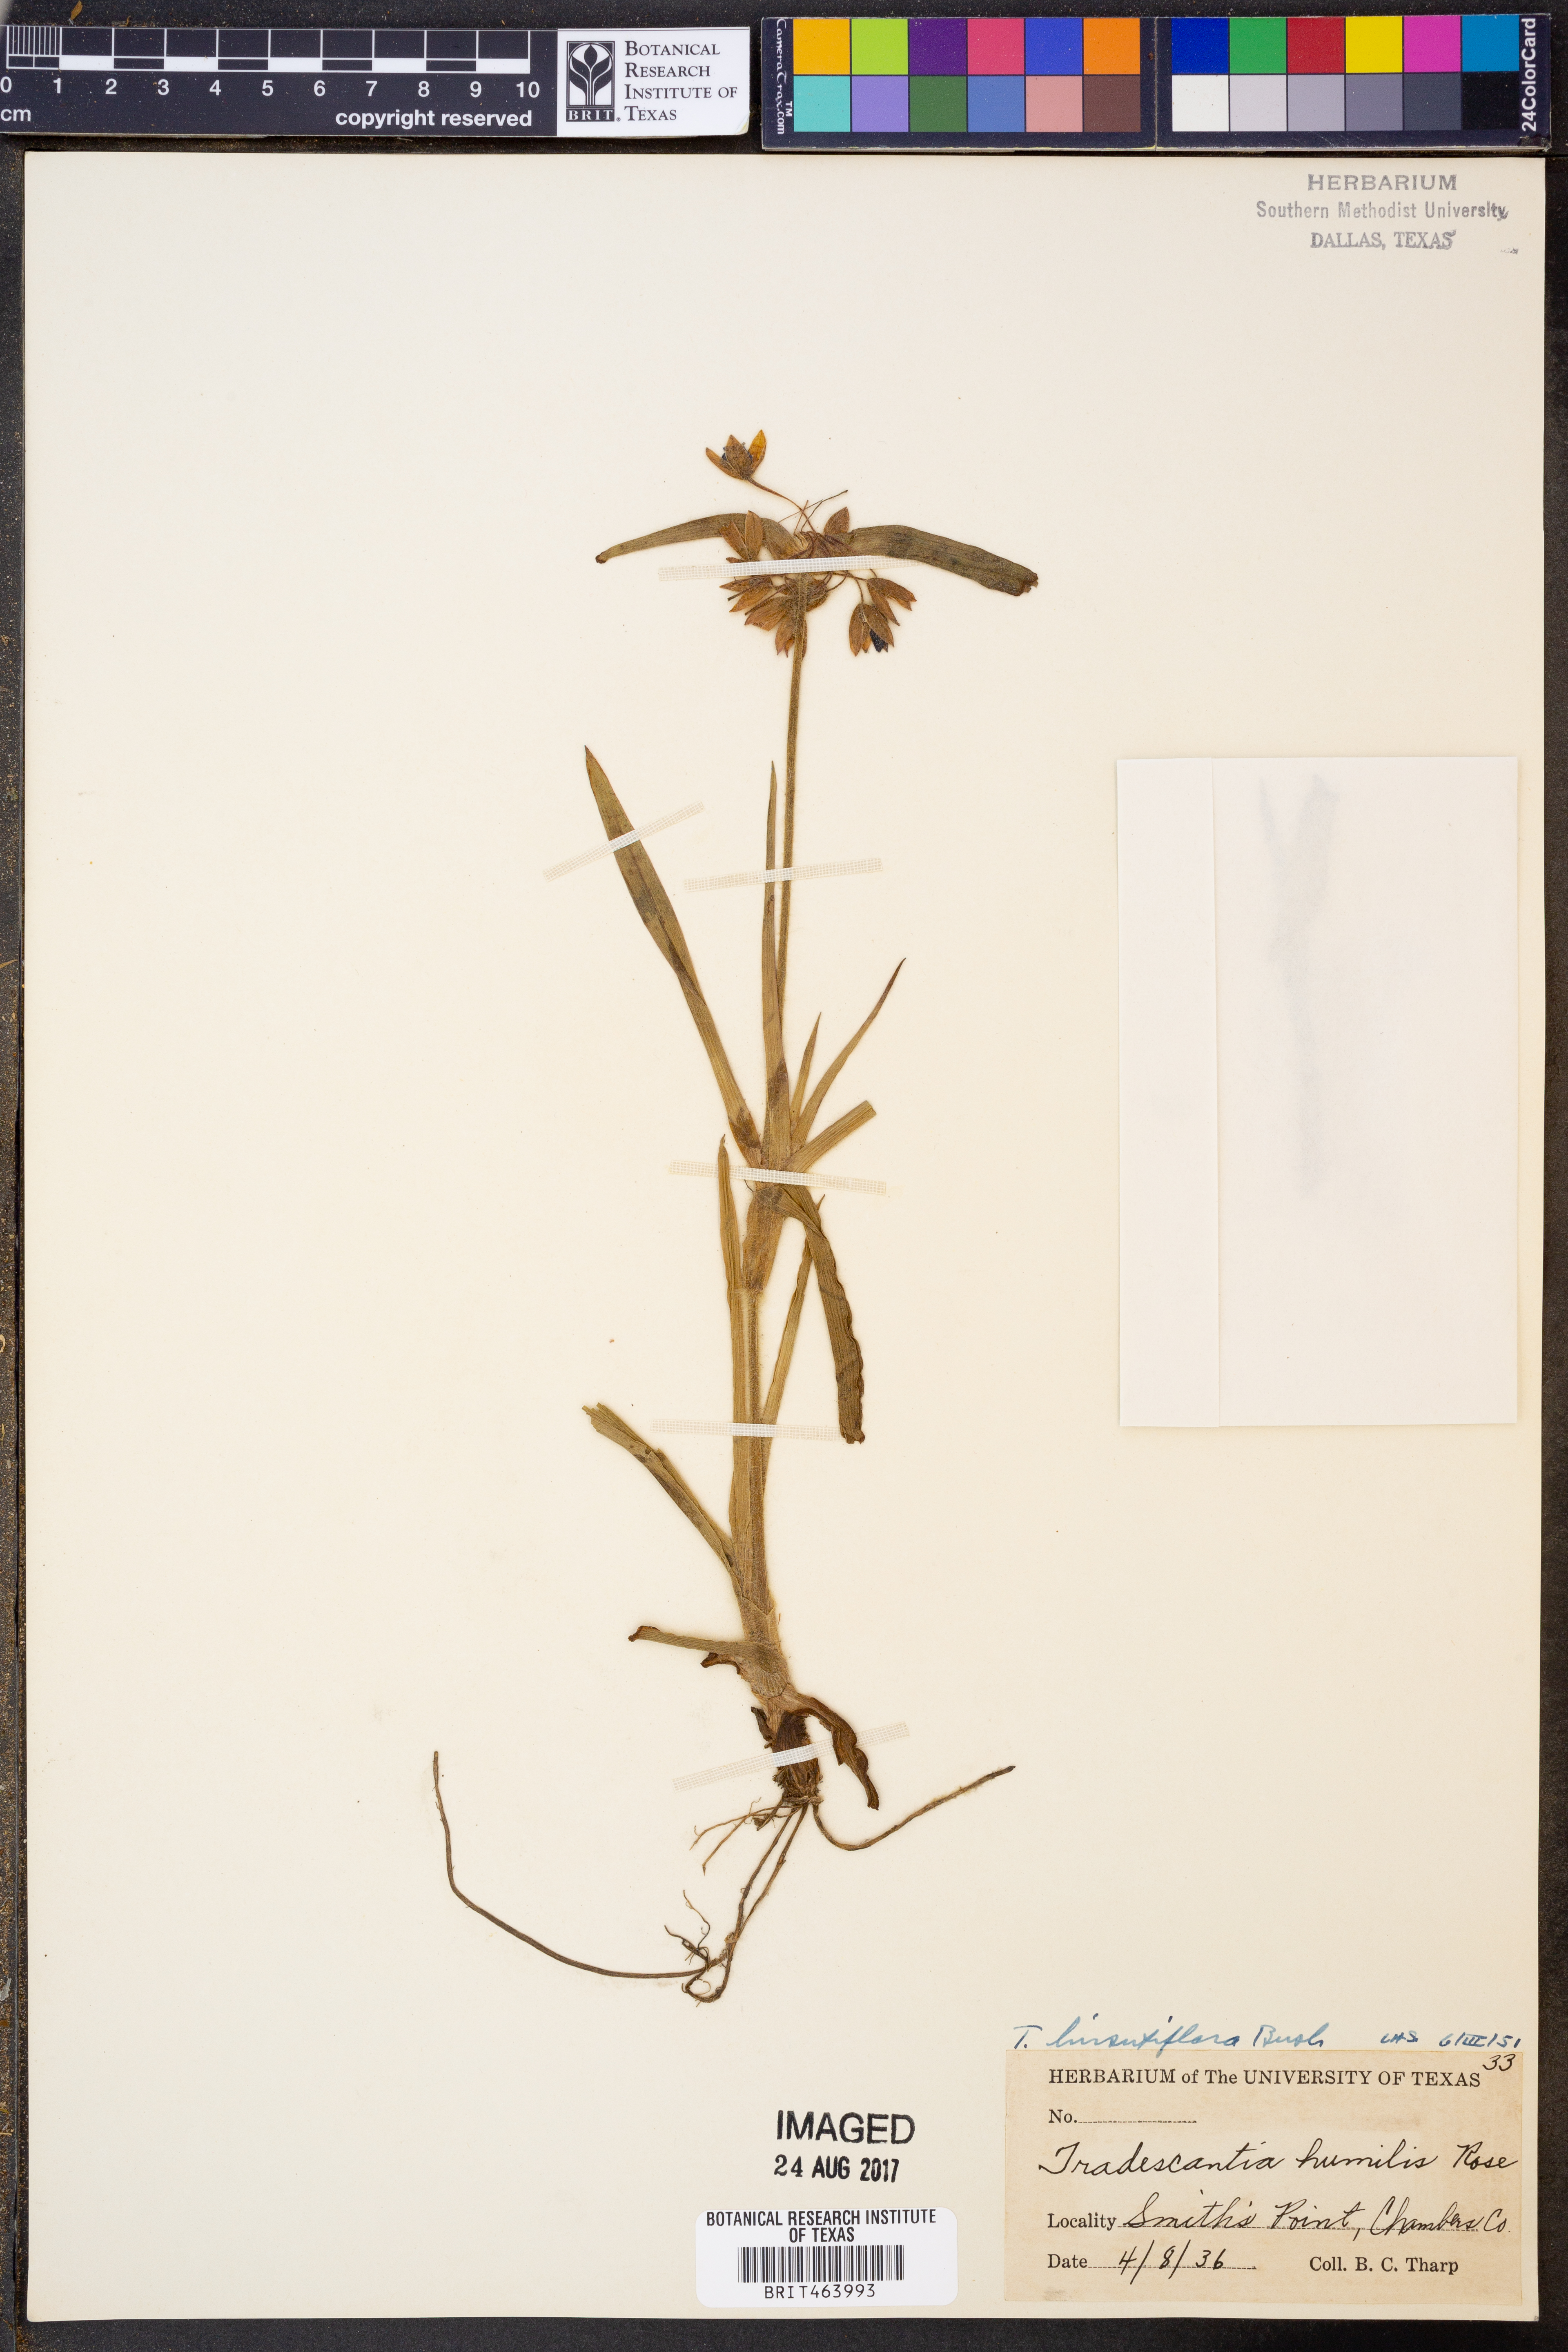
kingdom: Plantae
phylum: Tracheophyta
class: Liliopsida
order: Commelinales
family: Commelinaceae
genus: Tradescantia
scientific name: Tradescantia hirsutiflora
